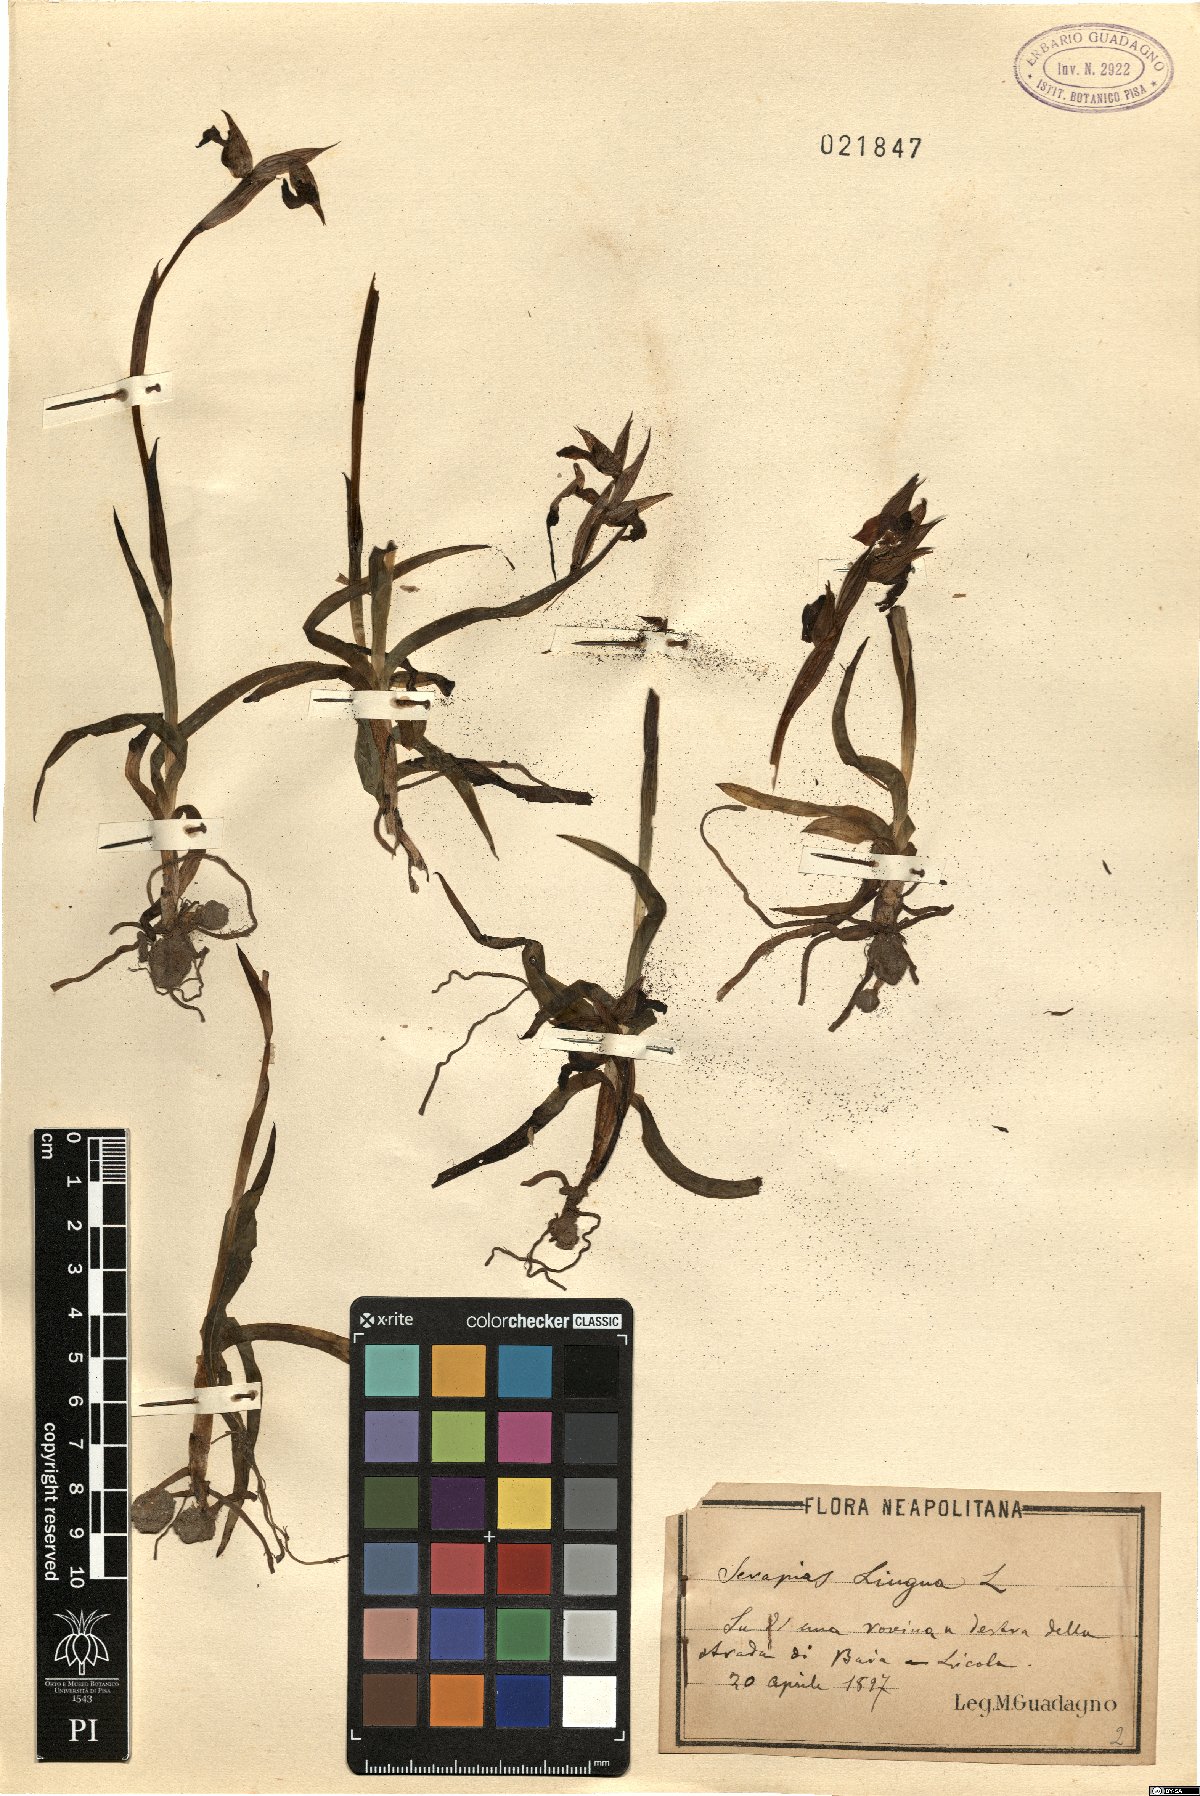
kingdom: Plantae
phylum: Tracheophyta
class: Liliopsida
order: Asparagales
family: Orchidaceae
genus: Serapias
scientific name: Serapias lingua
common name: Tongue-orchid
